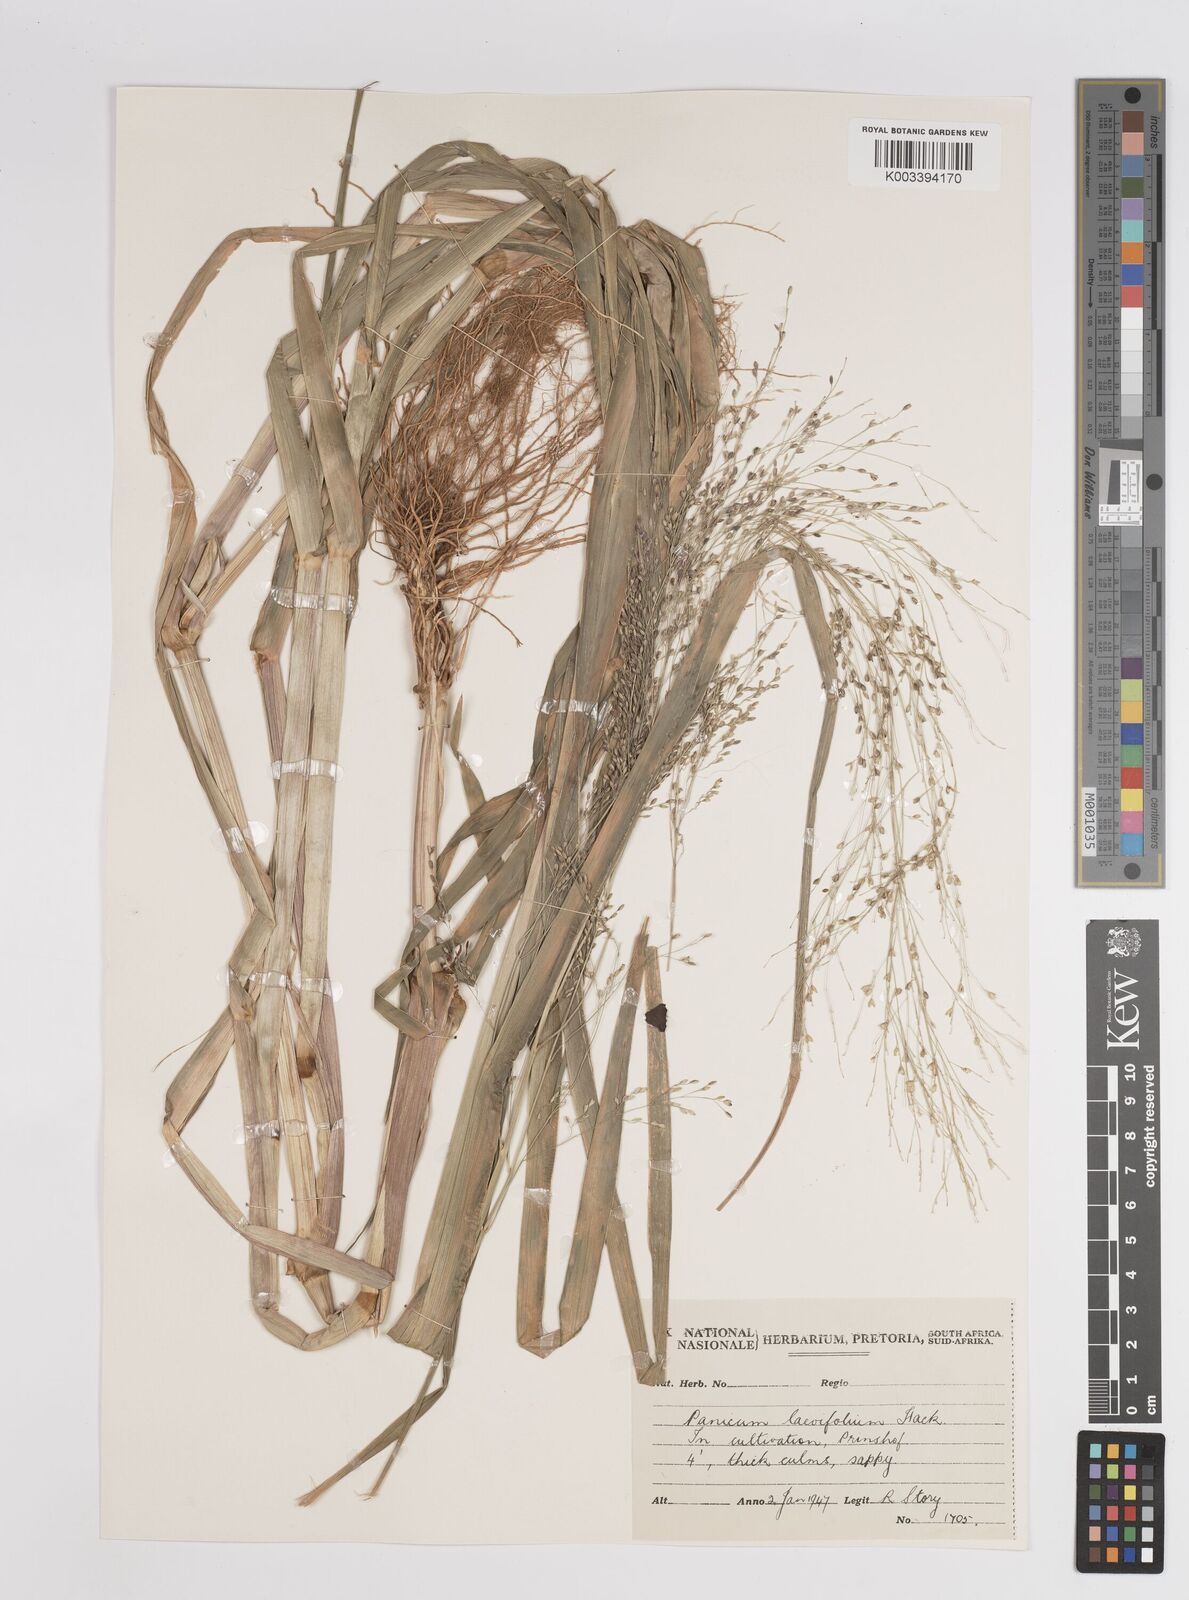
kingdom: Plantae
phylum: Tracheophyta
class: Liliopsida
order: Poales
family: Poaceae
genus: Panicum
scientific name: Panicum schinzii
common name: Sweet grass
